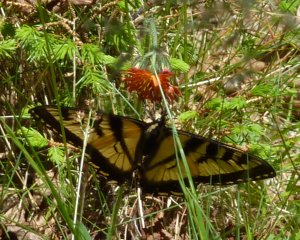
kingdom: Animalia
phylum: Arthropoda
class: Insecta
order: Lepidoptera
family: Papilionidae
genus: Pterourus
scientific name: Pterourus canadensis
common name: Canadian Tiger Swallowtail
